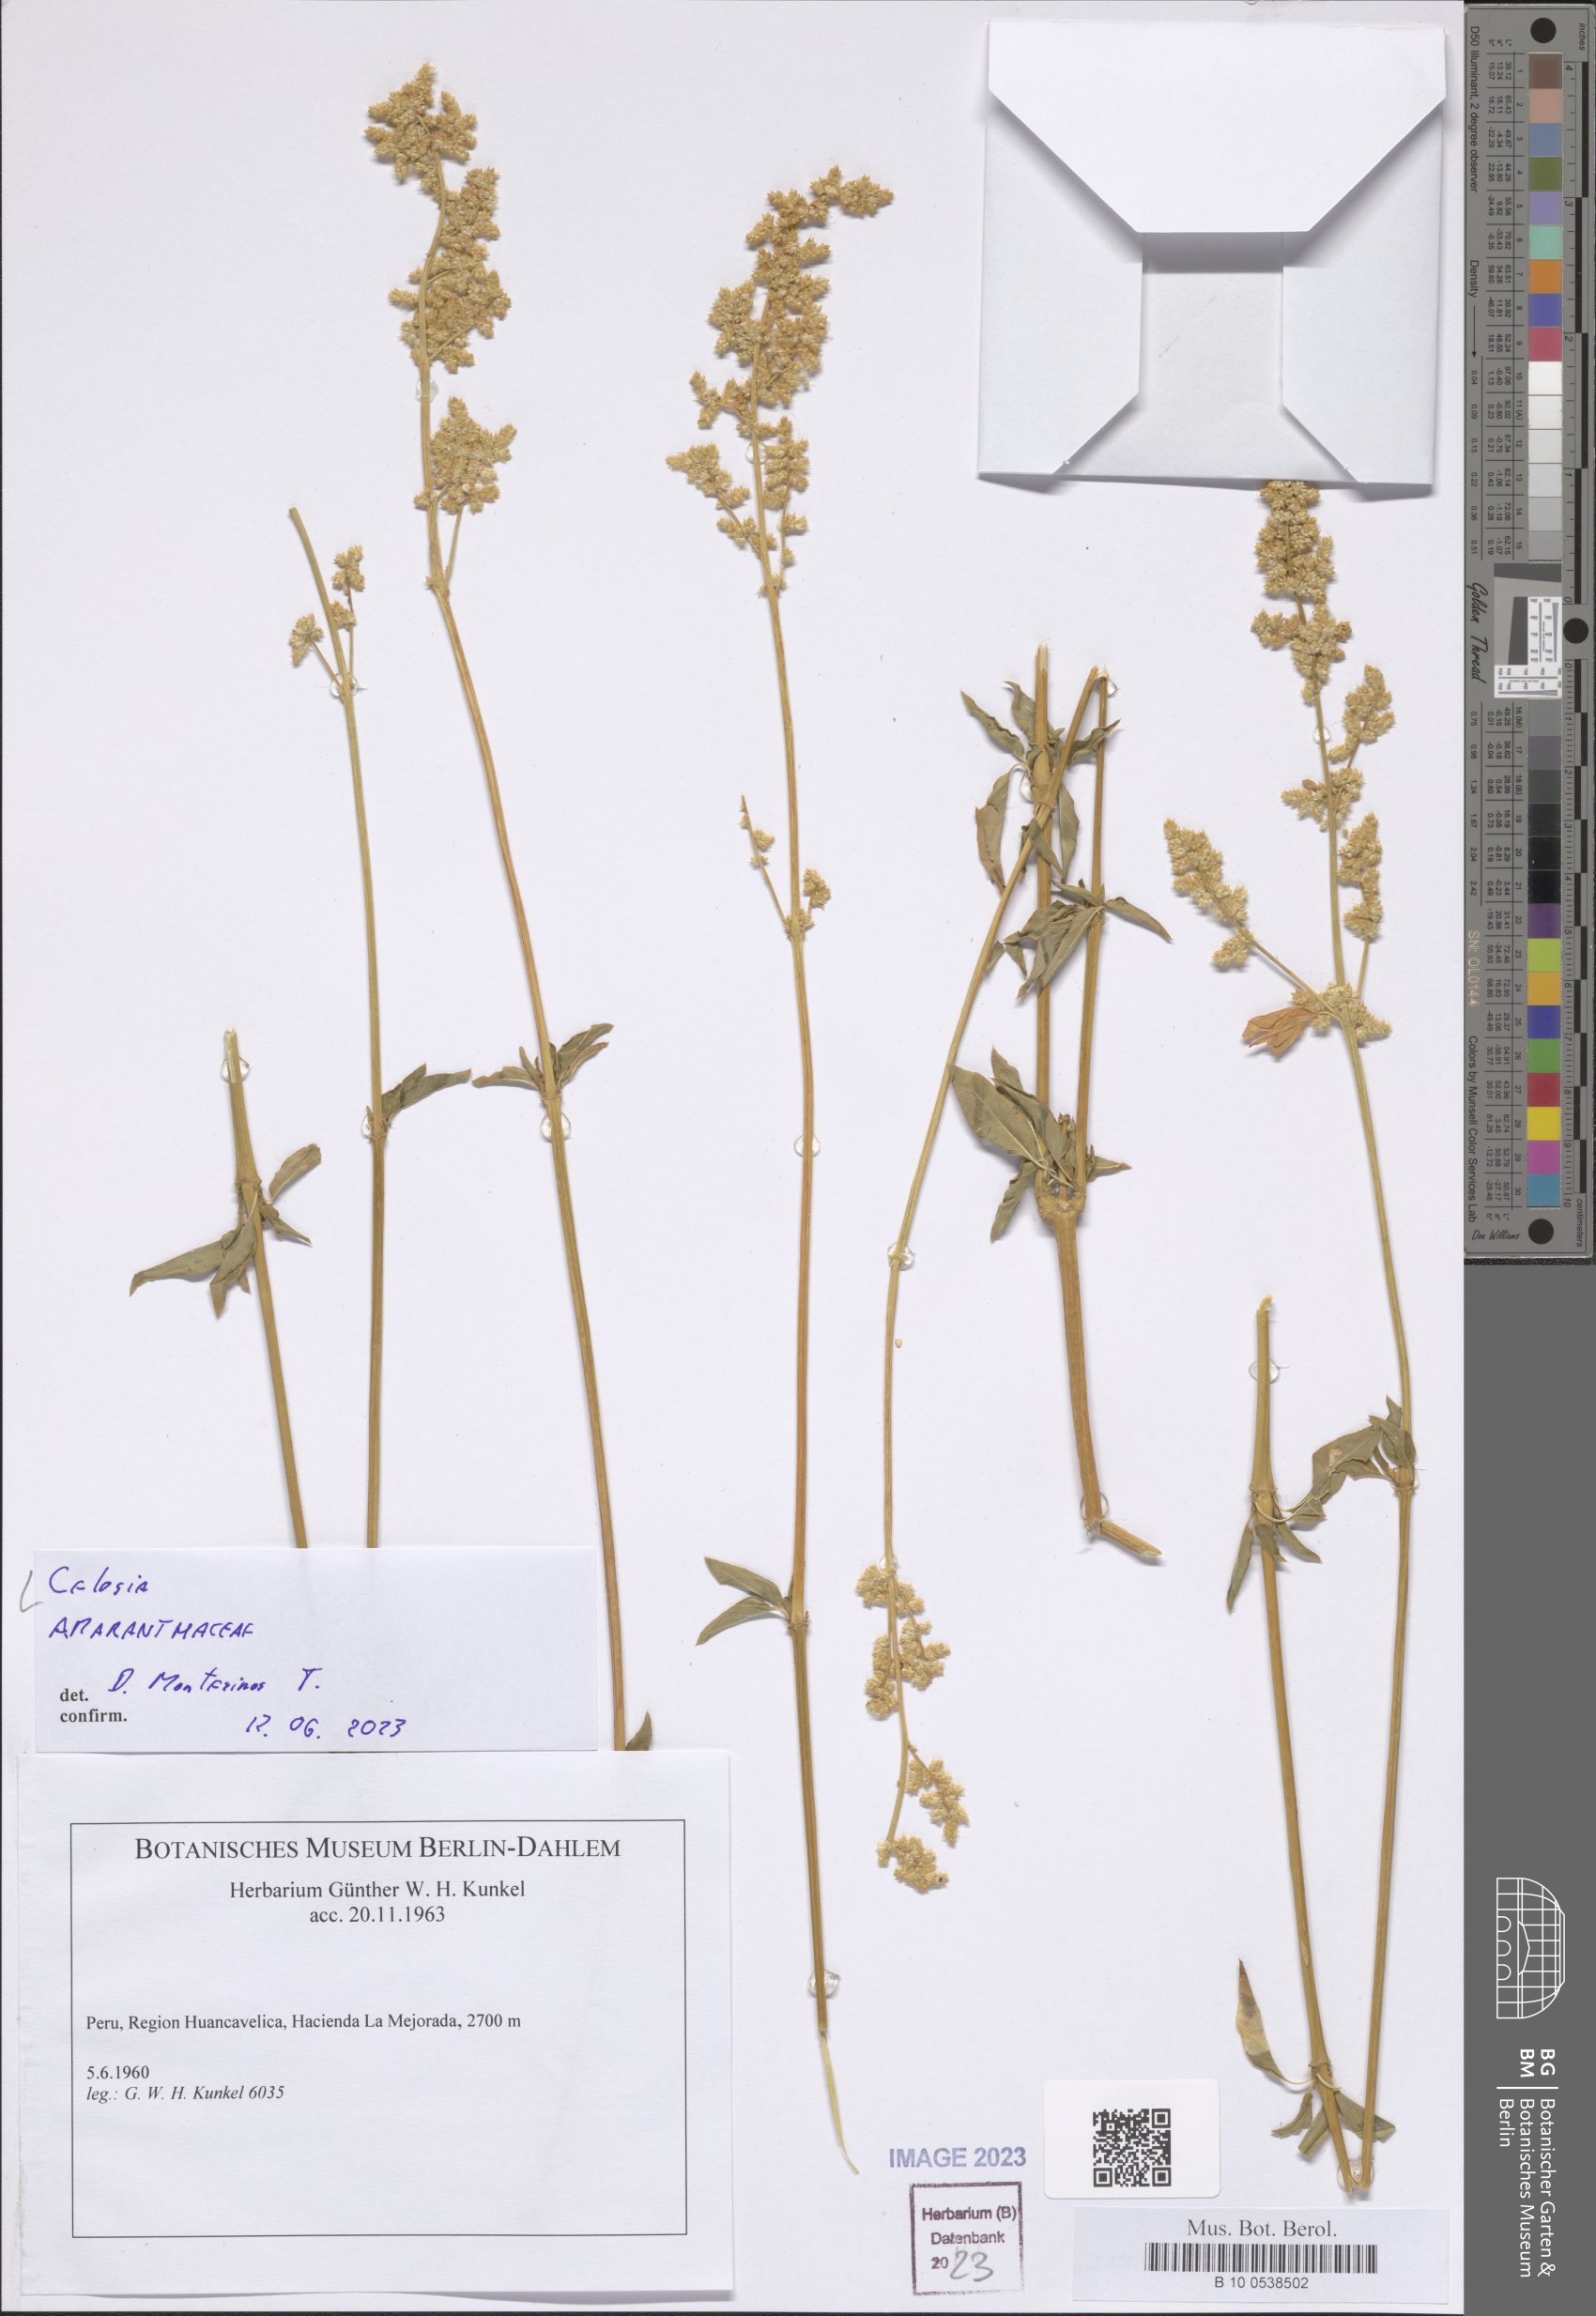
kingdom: Plantae
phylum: Tracheophyta
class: Magnoliopsida
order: Caryophyllales
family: Amaranthaceae
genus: Celosia
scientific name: Celosia
